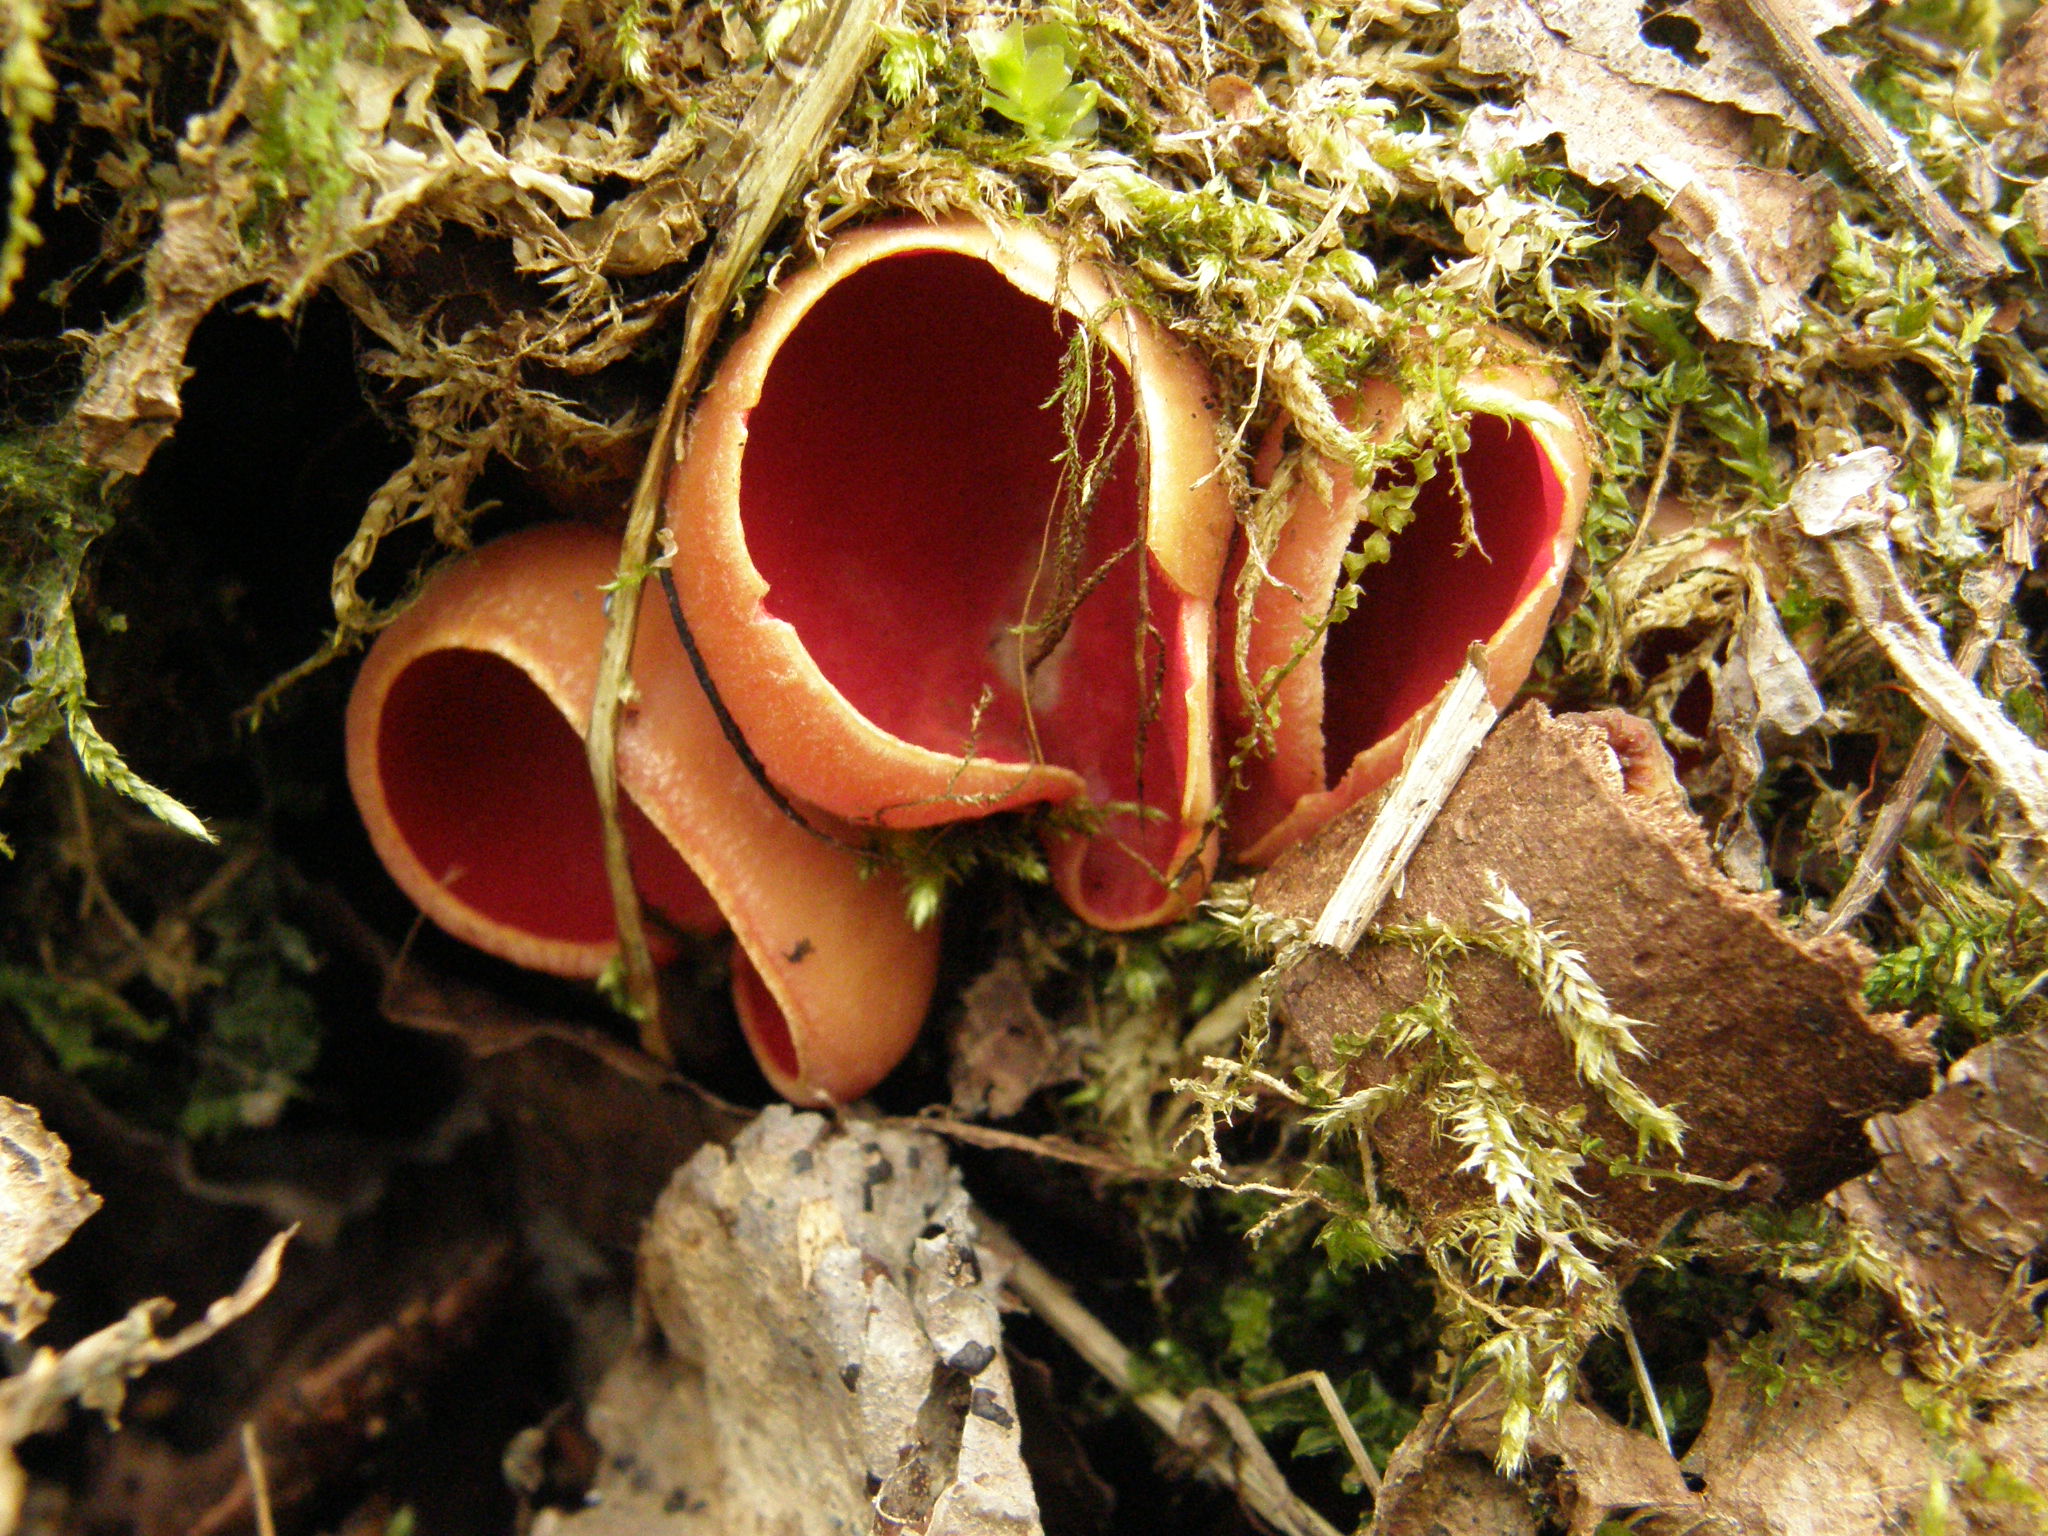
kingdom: Fungi
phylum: Ascomycota
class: Pezizomycetes
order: Pezizales
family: Sarcoscyphaceae
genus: Sarcoscypha
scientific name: Sarcoscypha austriaca
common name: Scarlet elfcup
